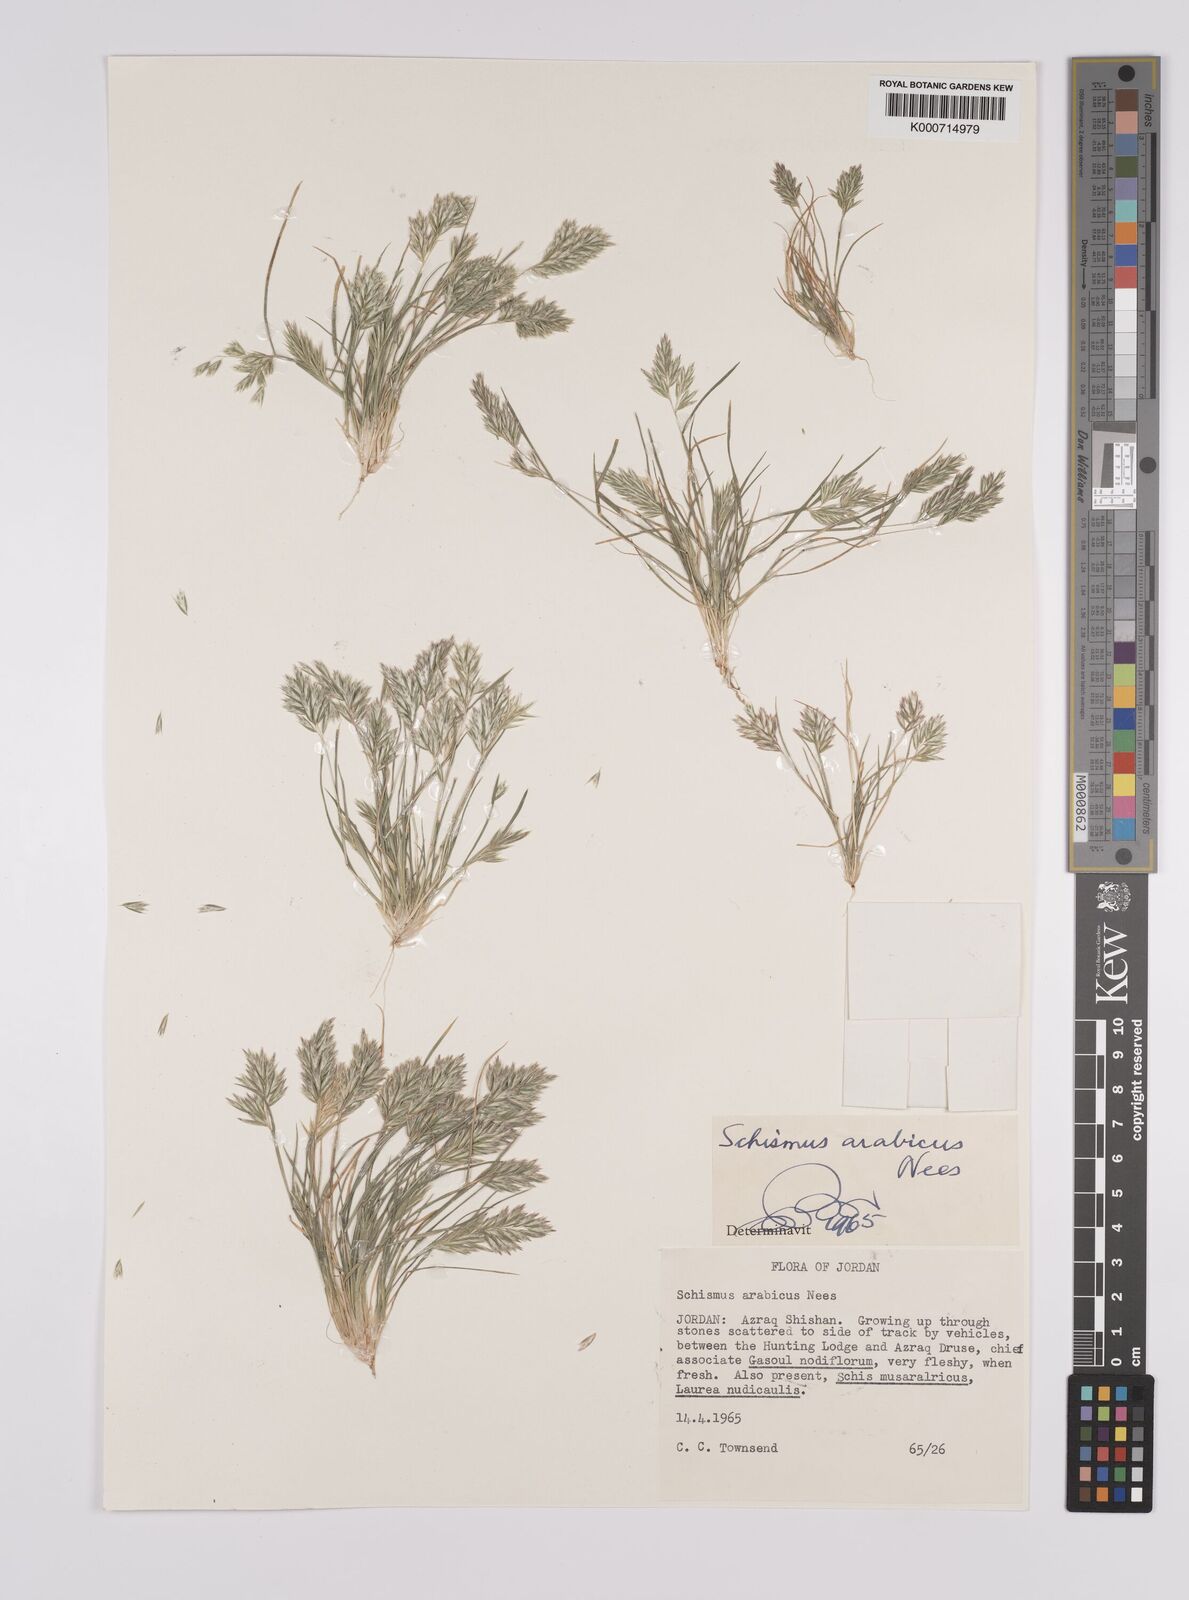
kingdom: Plantae
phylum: Tracheophyta
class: Liliopsida
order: Poales
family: Poaceae
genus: Schismus
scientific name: Schismus arabicus
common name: Arabian schismus
